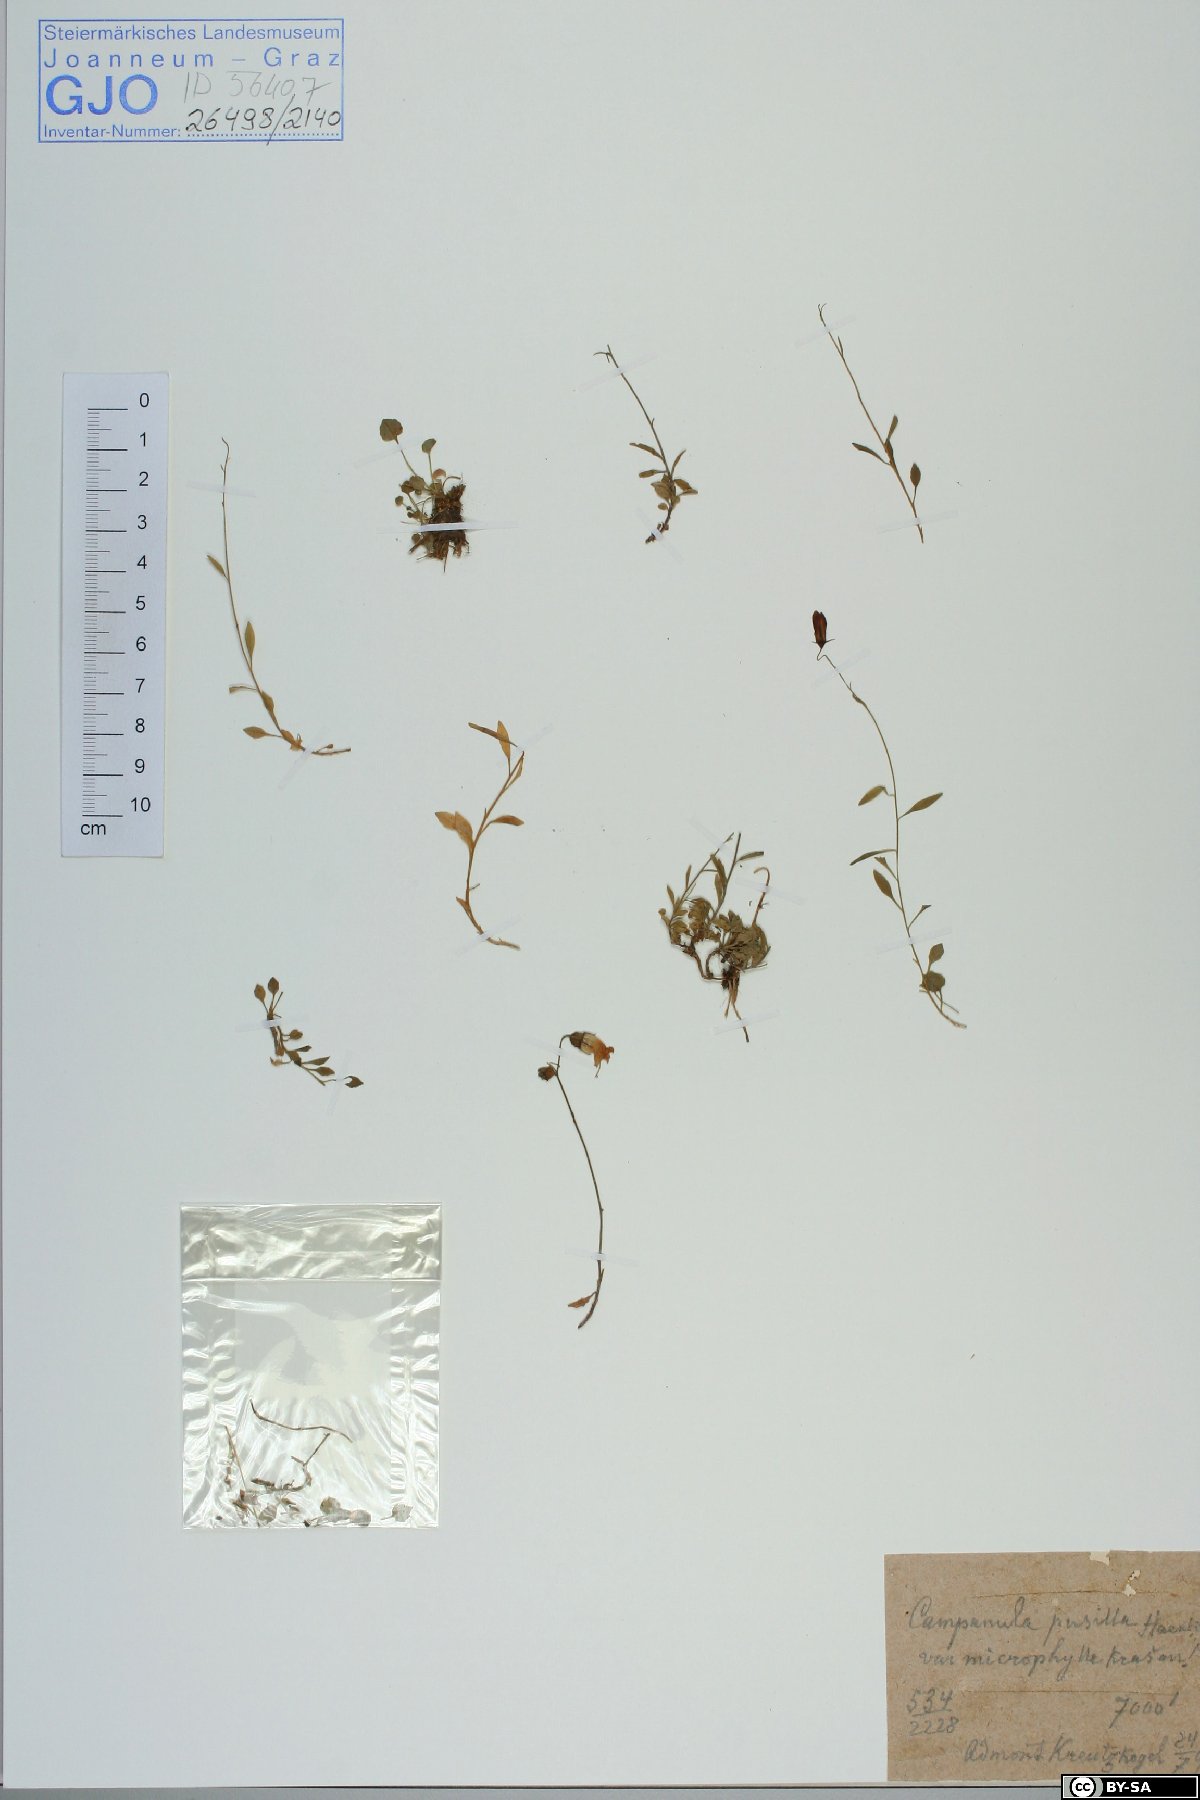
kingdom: Plantae
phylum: Tracheophyta
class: Magnoliopsida
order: Asterales
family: Campanulaceae
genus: Campanula
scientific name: Campanula cochleariifolia
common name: Fairies'-thimbles
